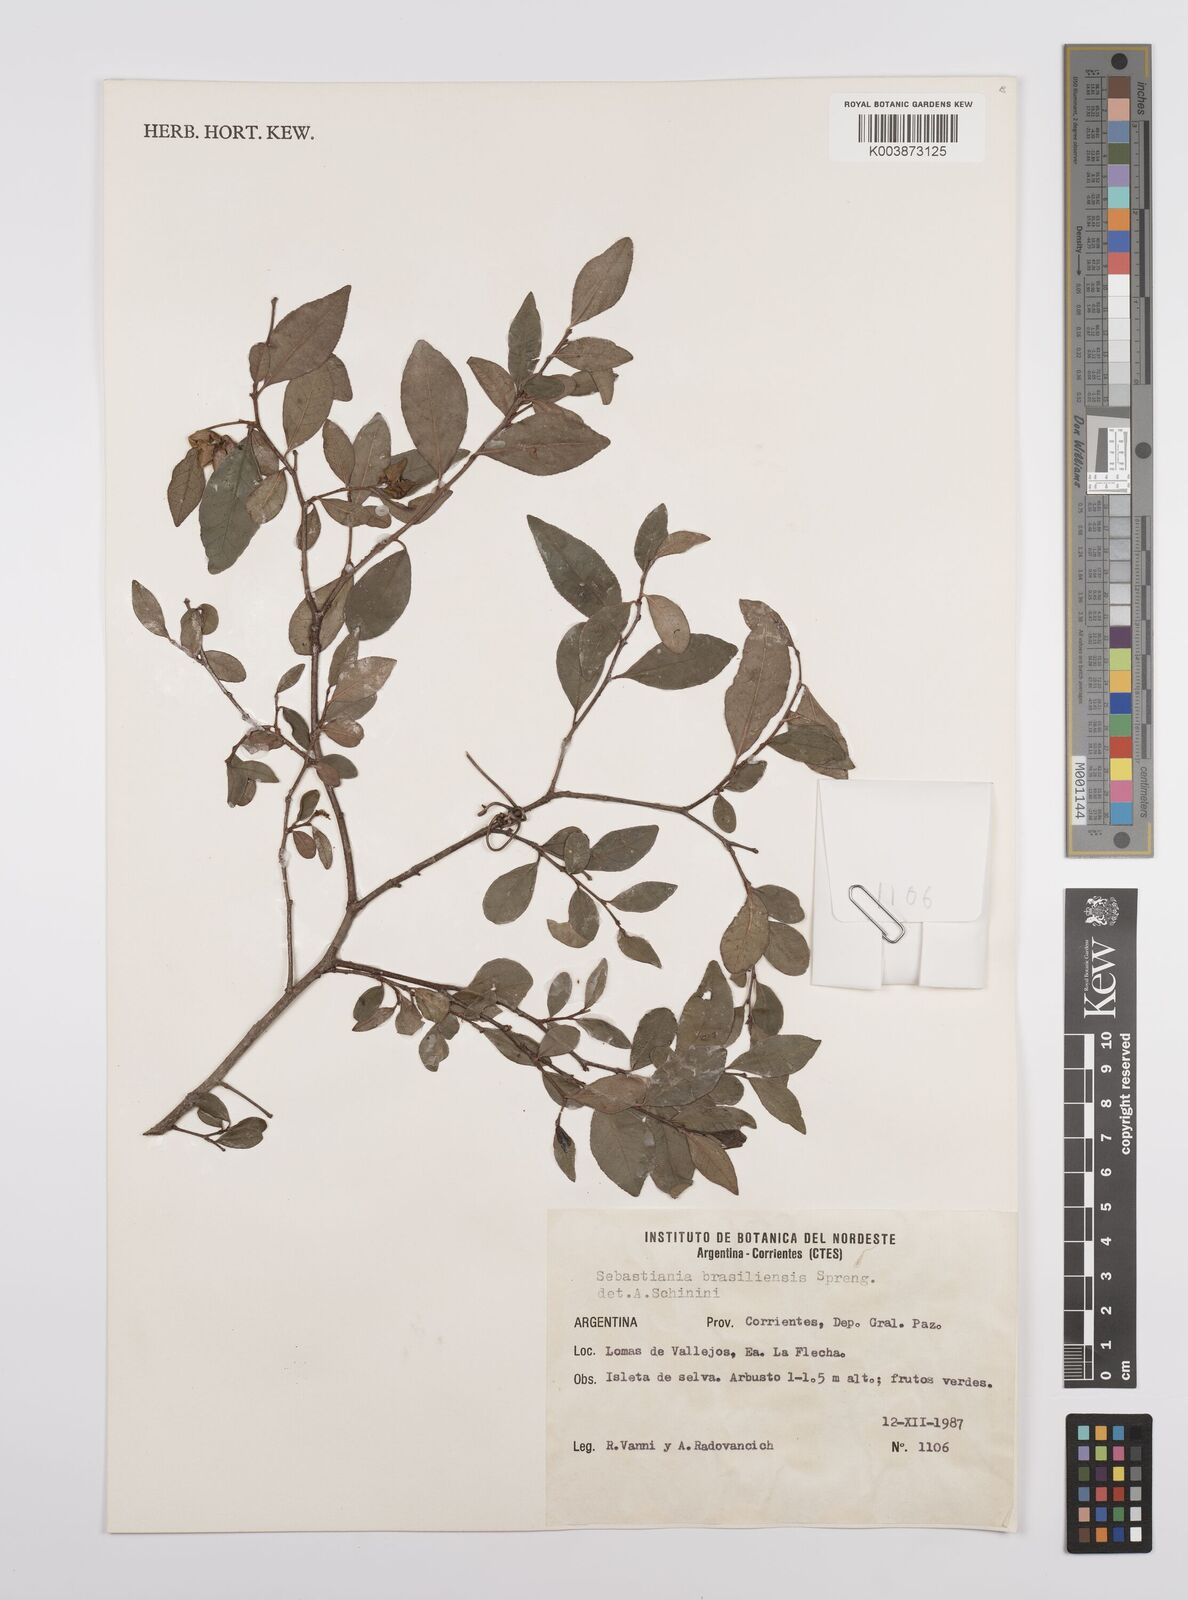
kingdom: Plantae
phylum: Tracheophyta
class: Magnoliopsida
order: Malpighiales
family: Euphorbiaceae
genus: Sebastiania
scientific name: Sebastiania brasiliensis
